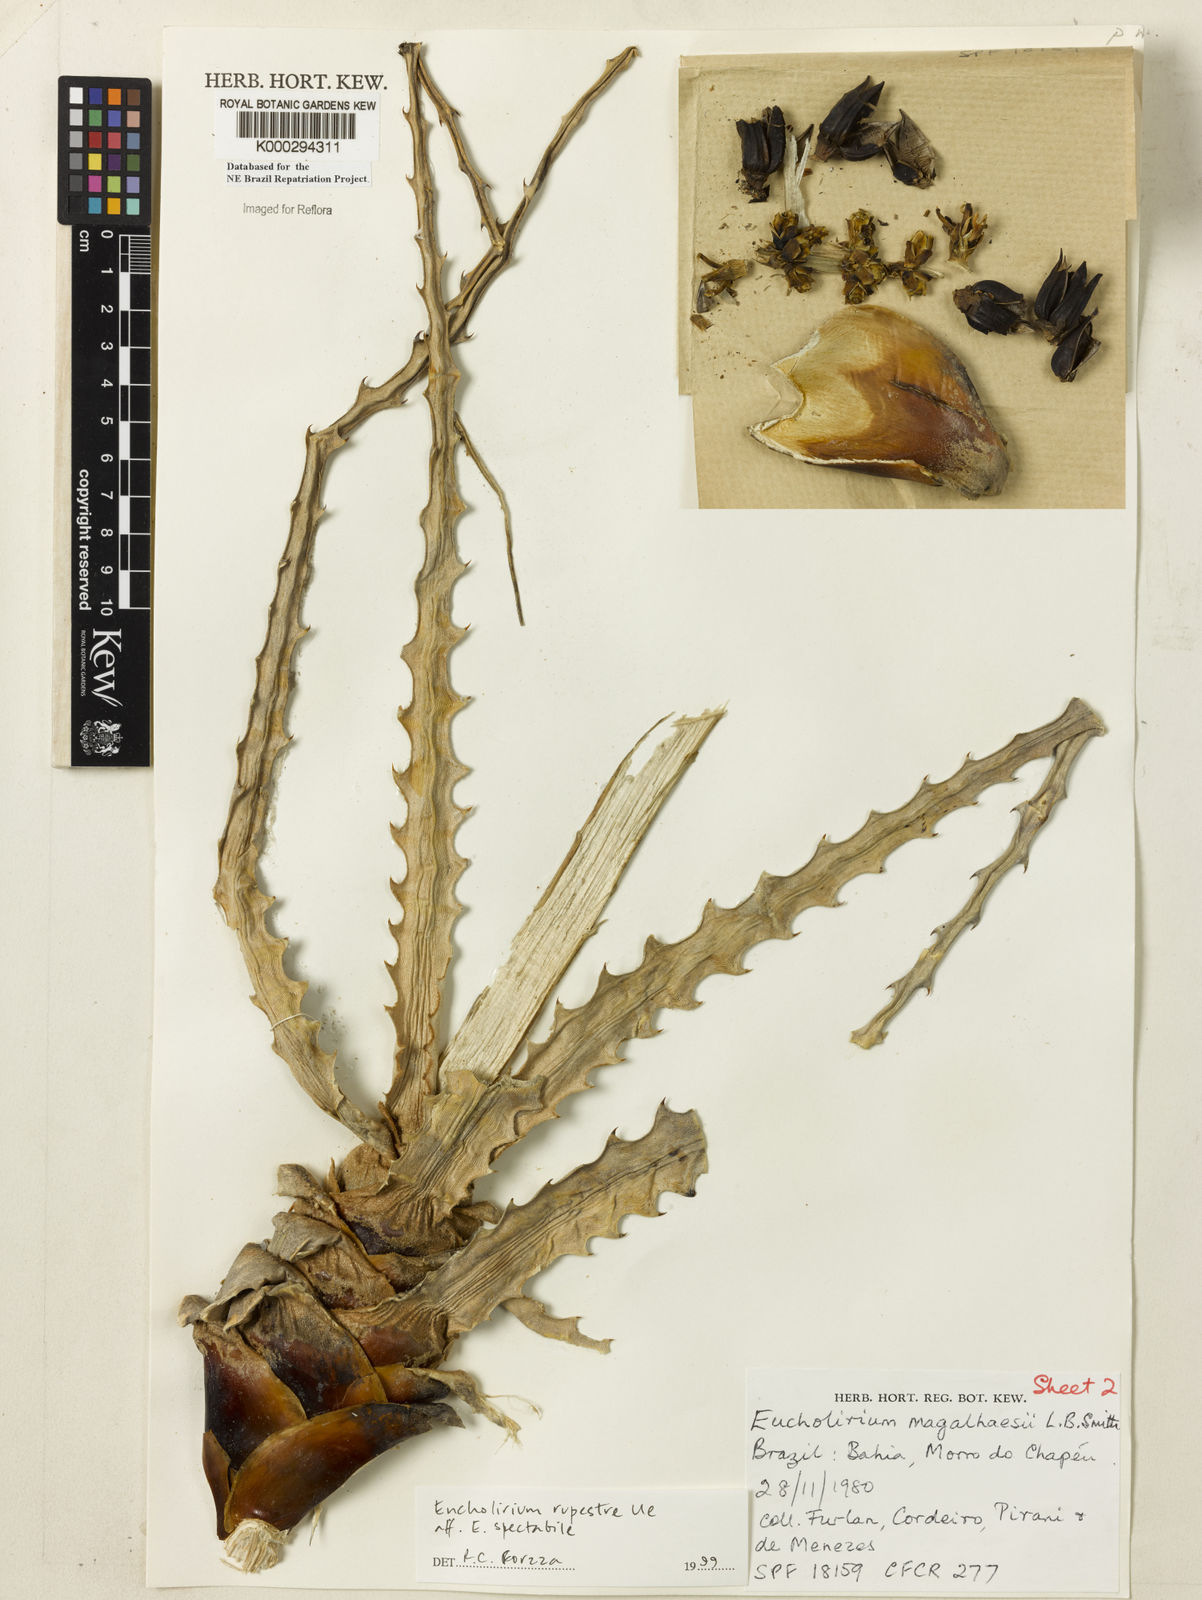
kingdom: Plantae
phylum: Tracheophyta
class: Liliopsida
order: Poales
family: Bromeliaceae
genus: Encholirium
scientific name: Encholirium spectabile
